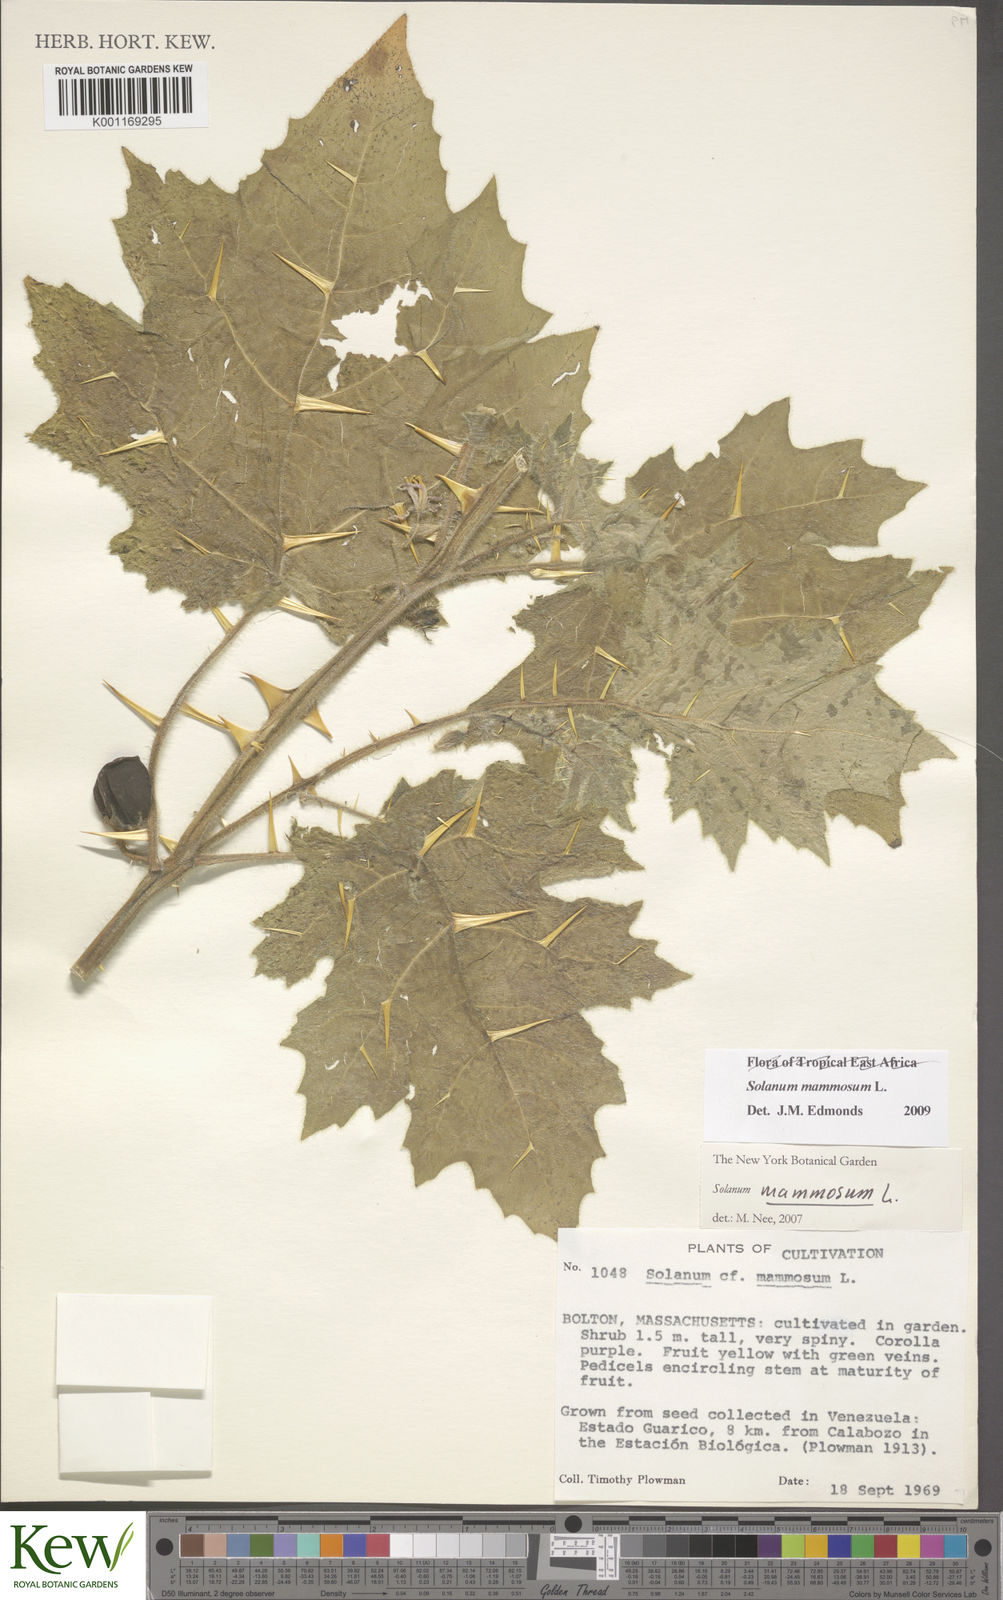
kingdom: Plantae
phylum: Tracheophyta
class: Magnoliopsida
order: Solanales
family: Solanaceae
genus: Solanum
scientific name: Solanum mammosum
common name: Nipple fruit
